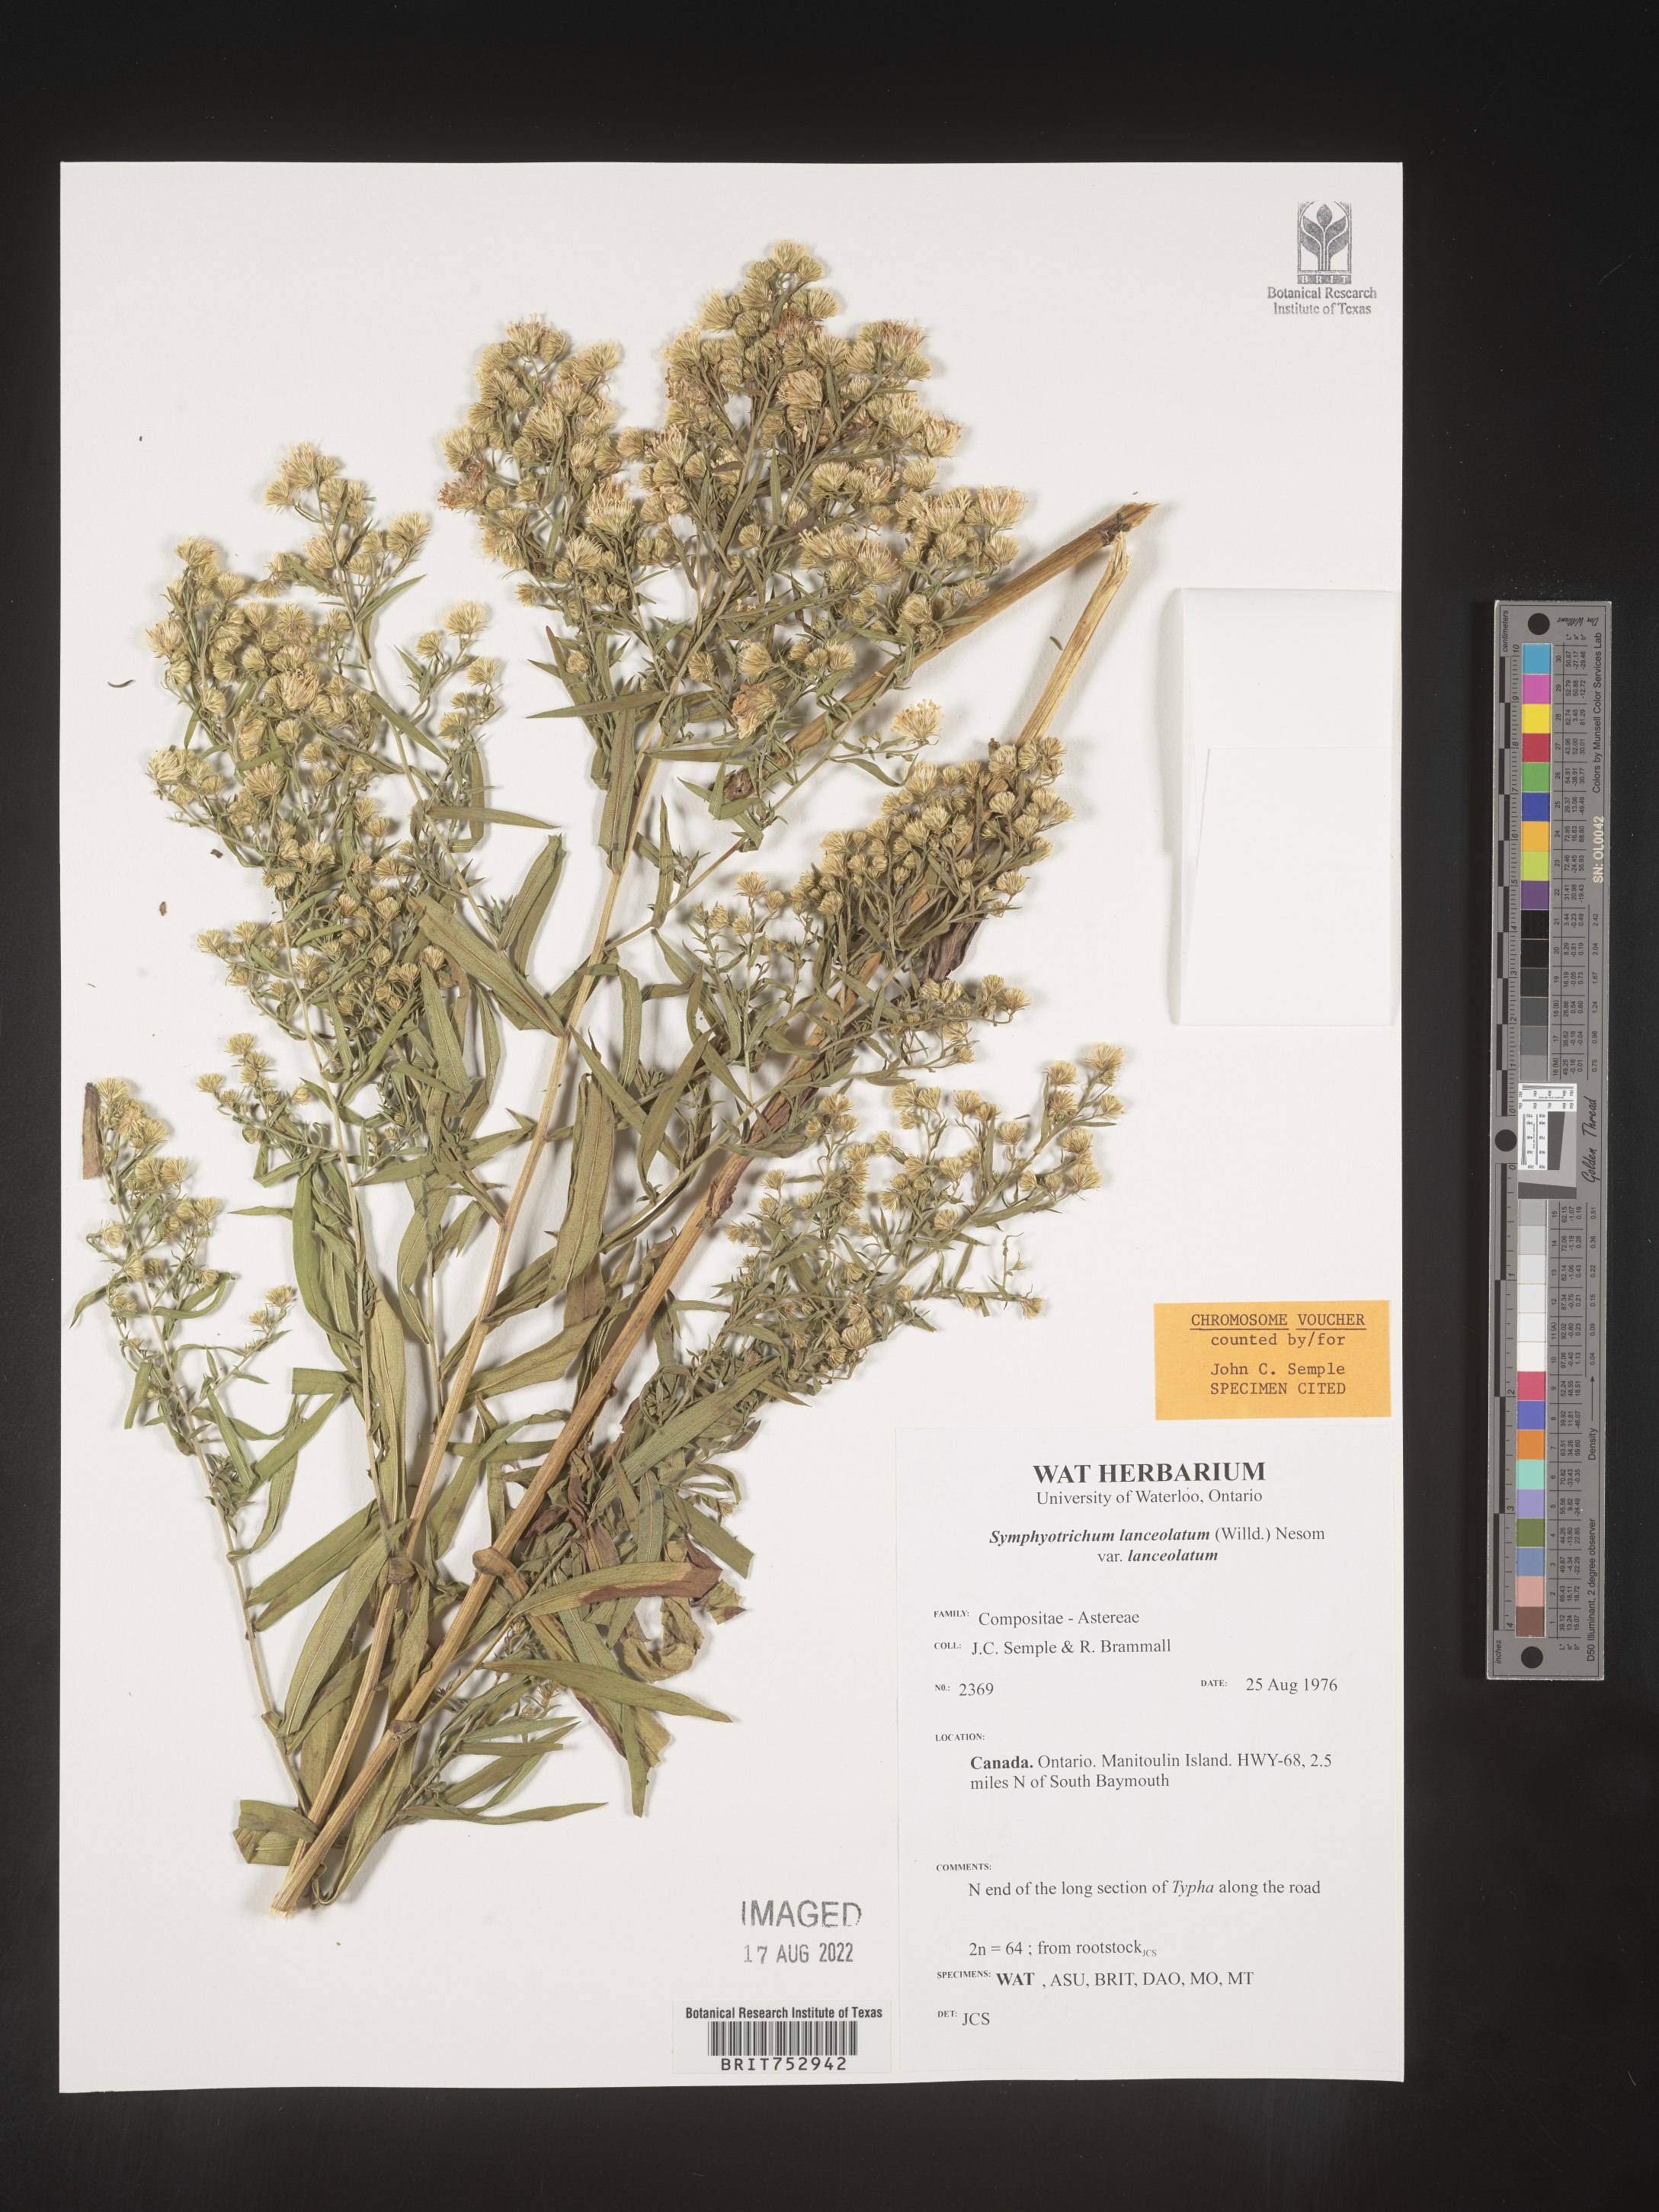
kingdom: Plantae
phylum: Tracheophyta
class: Magnoliopsida
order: Asterales
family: Asteraceae
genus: Symphyotrichum
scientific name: Symphyotrichum lanceolatum
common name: Panicled aster
